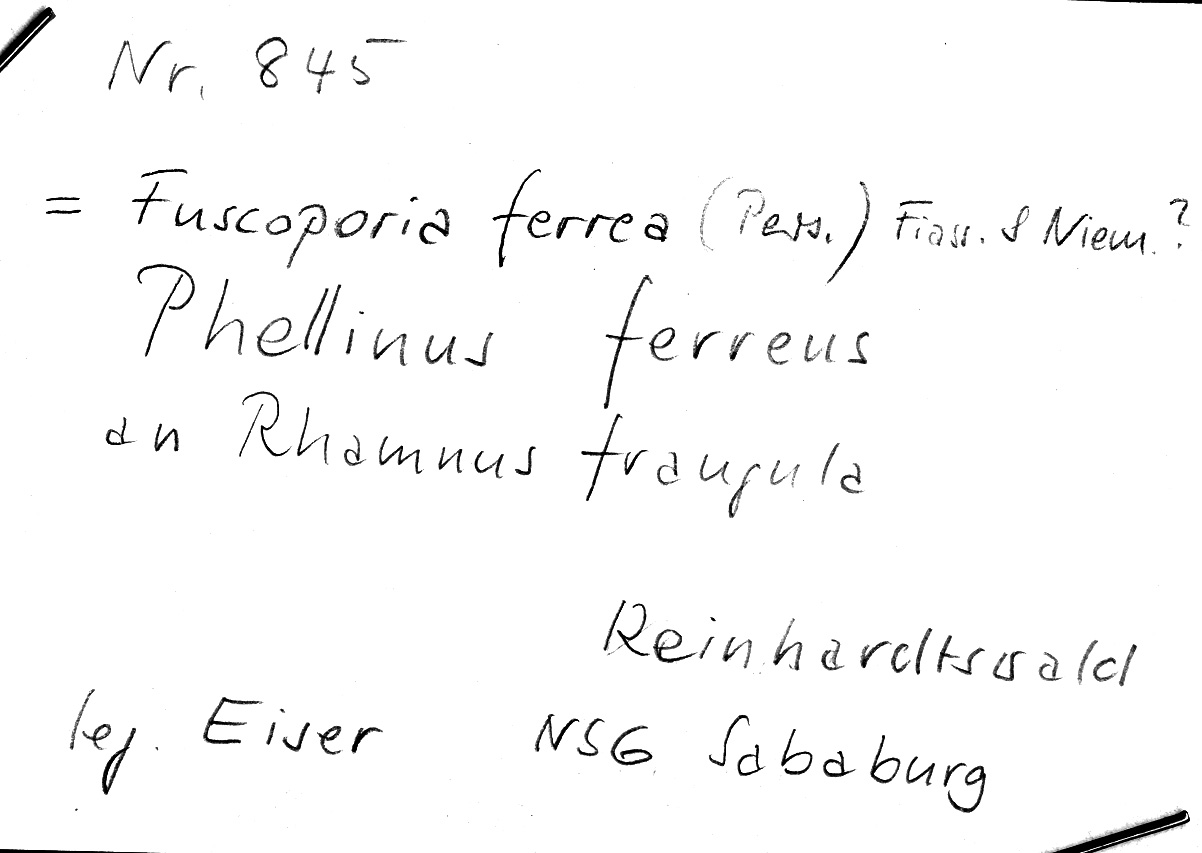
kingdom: Plantae
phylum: Tracheophyta
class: Magnoliopsida
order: Rosales
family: Rhamnaceae
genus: Frangula
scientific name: Frangula alnus
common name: Alder buckthorn
